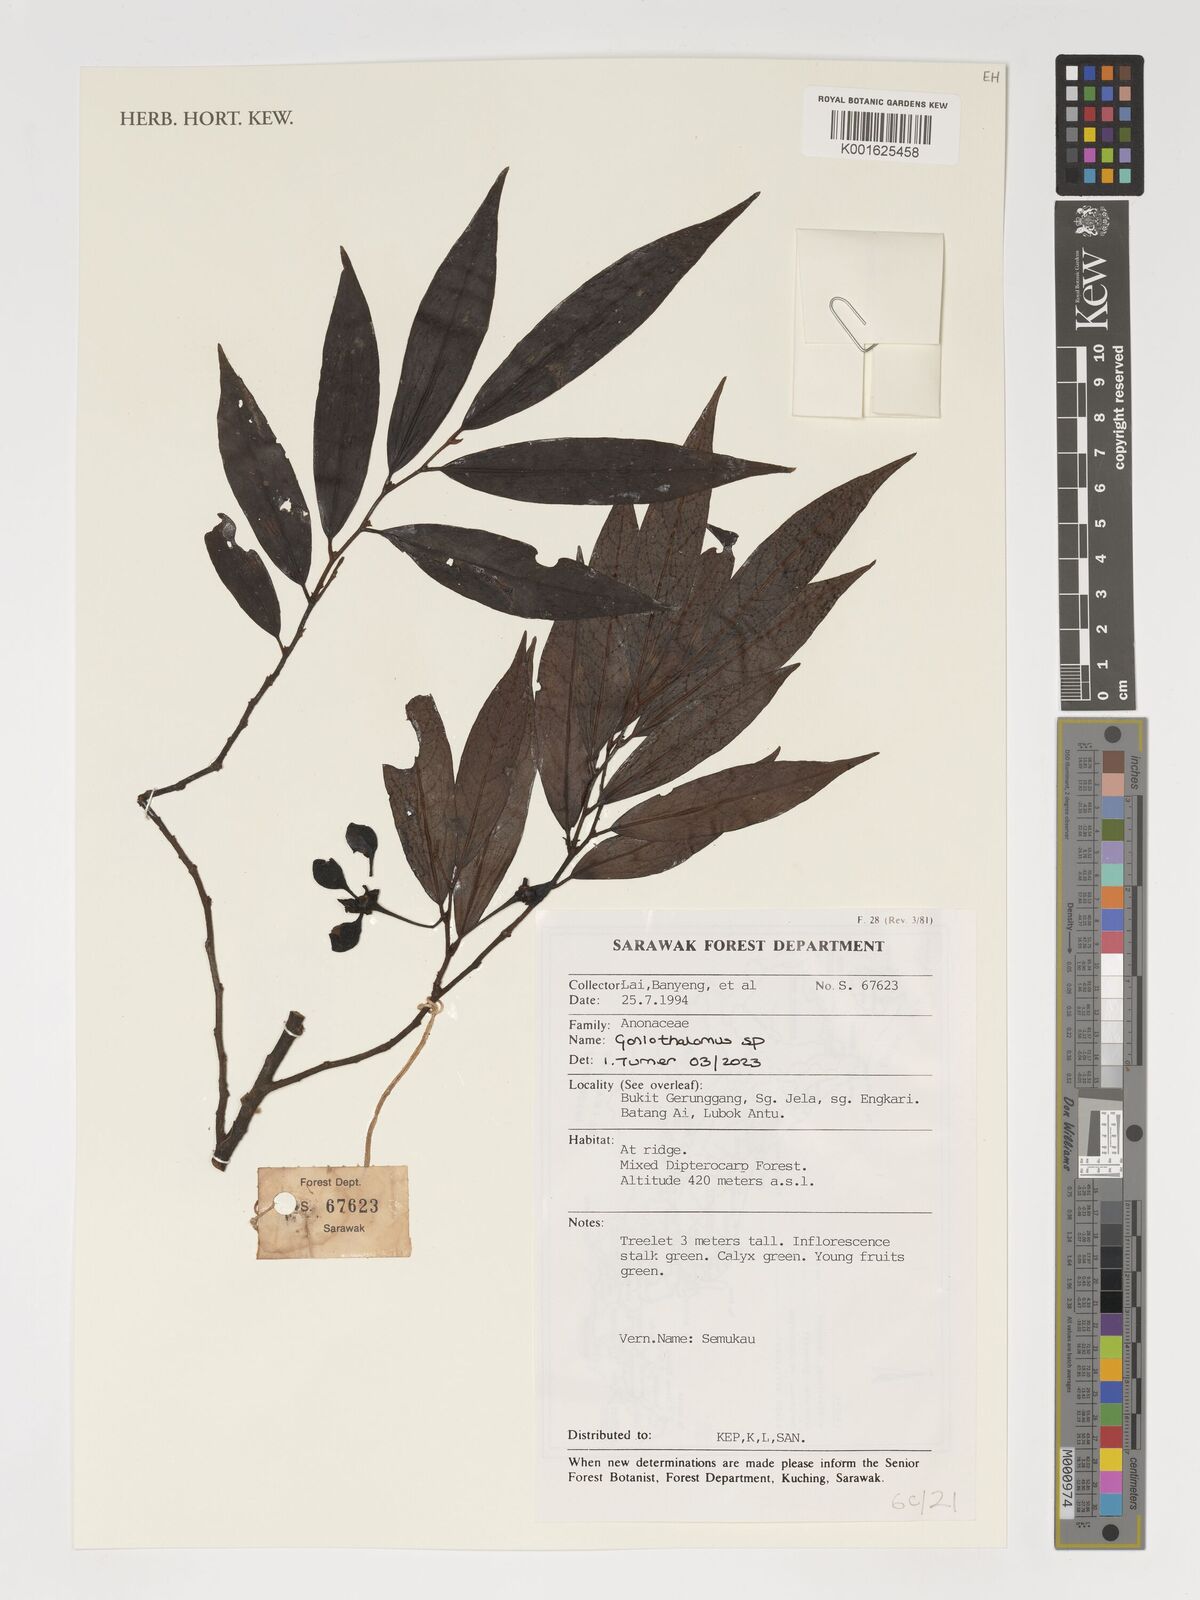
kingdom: Plantae
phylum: Tracheophyta
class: Magnoliopsida
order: Magnoliales
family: Annonaceae
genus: Goniothalamus
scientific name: Goniothalamus
